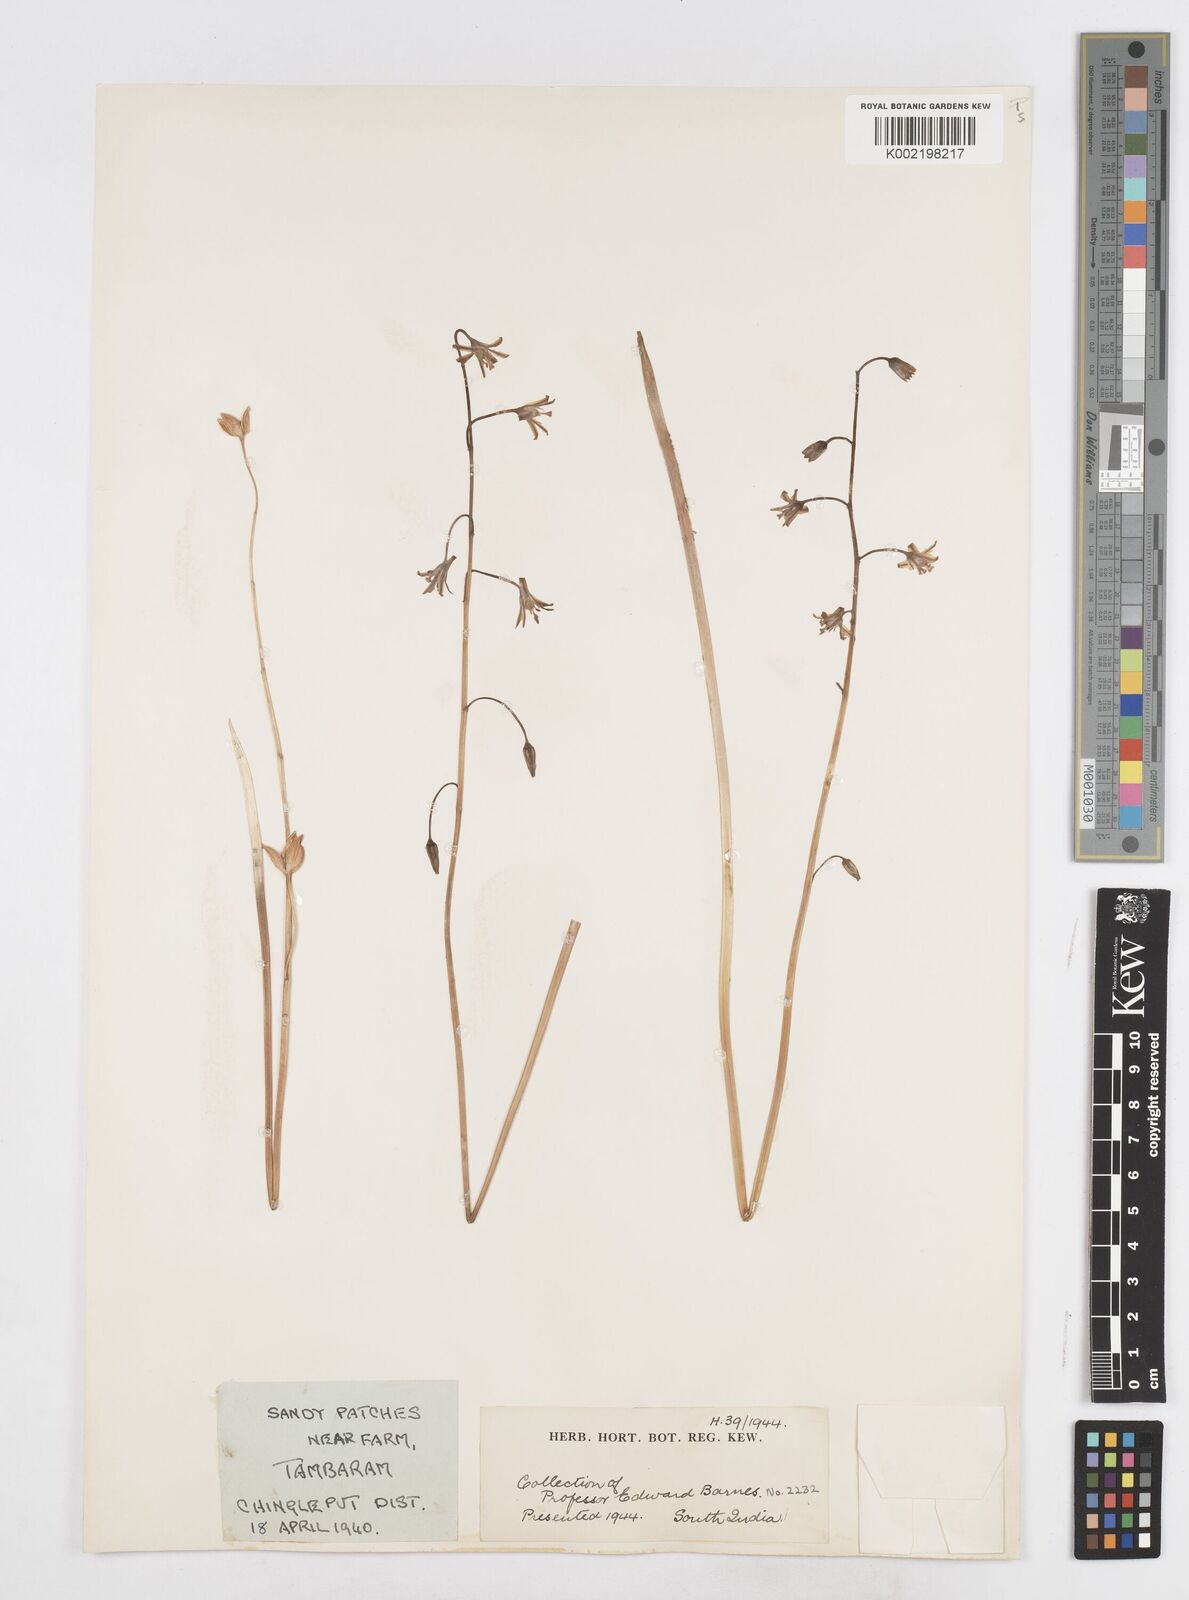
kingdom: Plantae
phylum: Tracheophyta
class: Liliopsida
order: Asparagales
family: Asparagaceae
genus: Drimia
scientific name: Drimia indica
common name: Indian-squill
